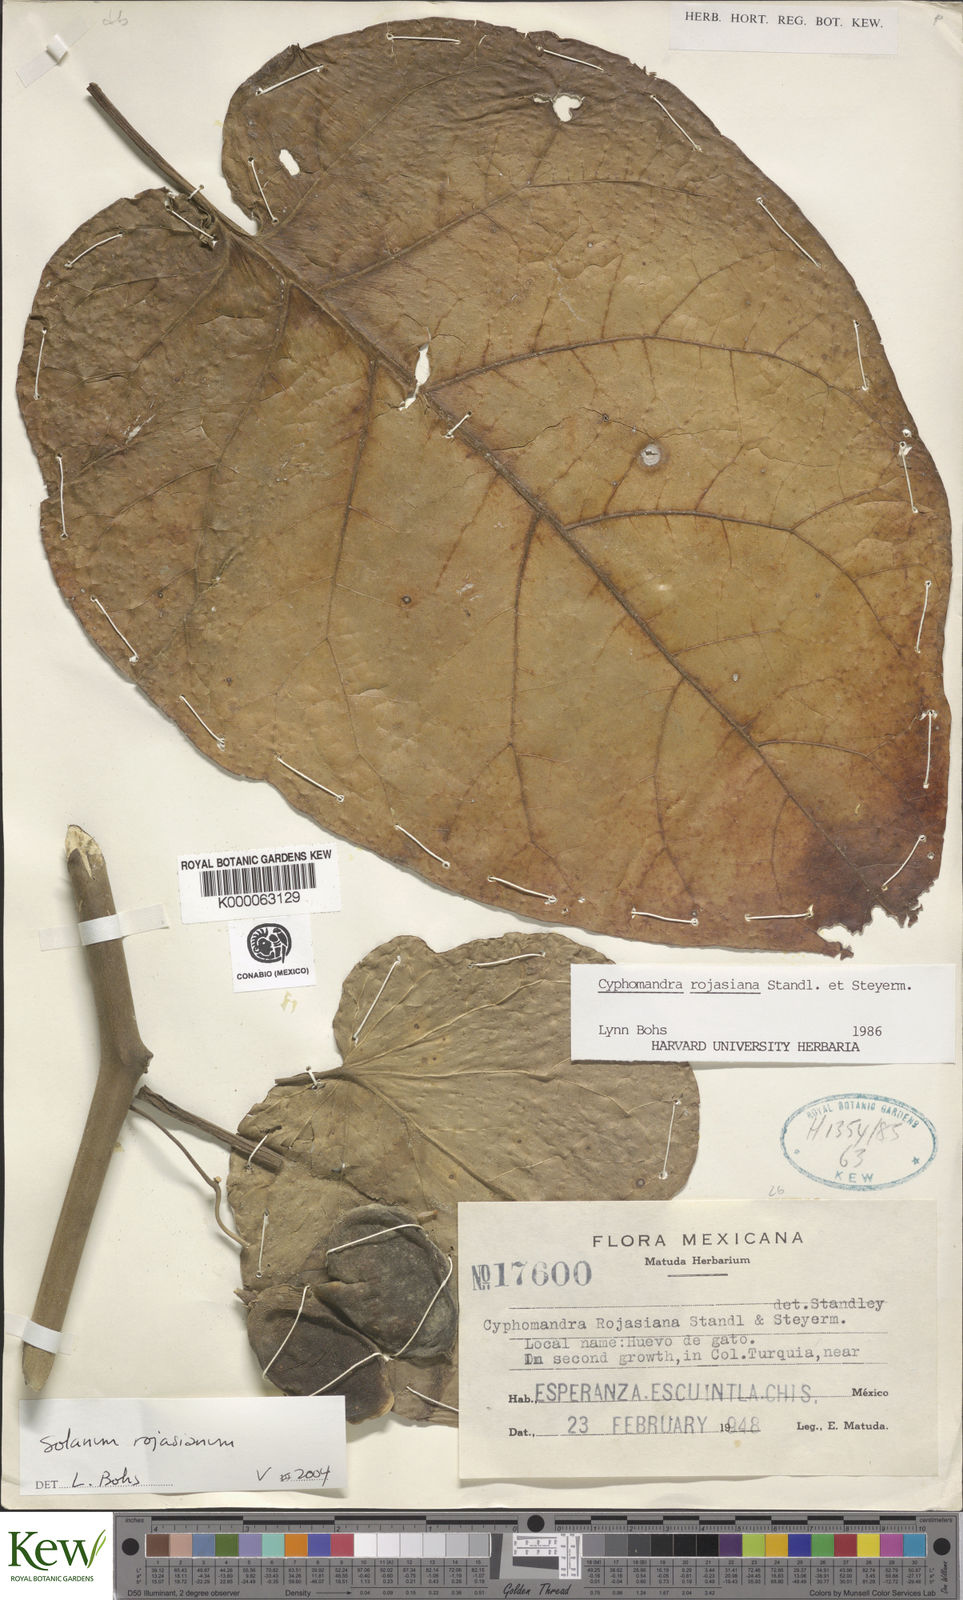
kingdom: Plantae
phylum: Tracheophyta
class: Magnoliopsida
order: Solanales
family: Solanaceae
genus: Solanum
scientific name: Solanum rojasianum
